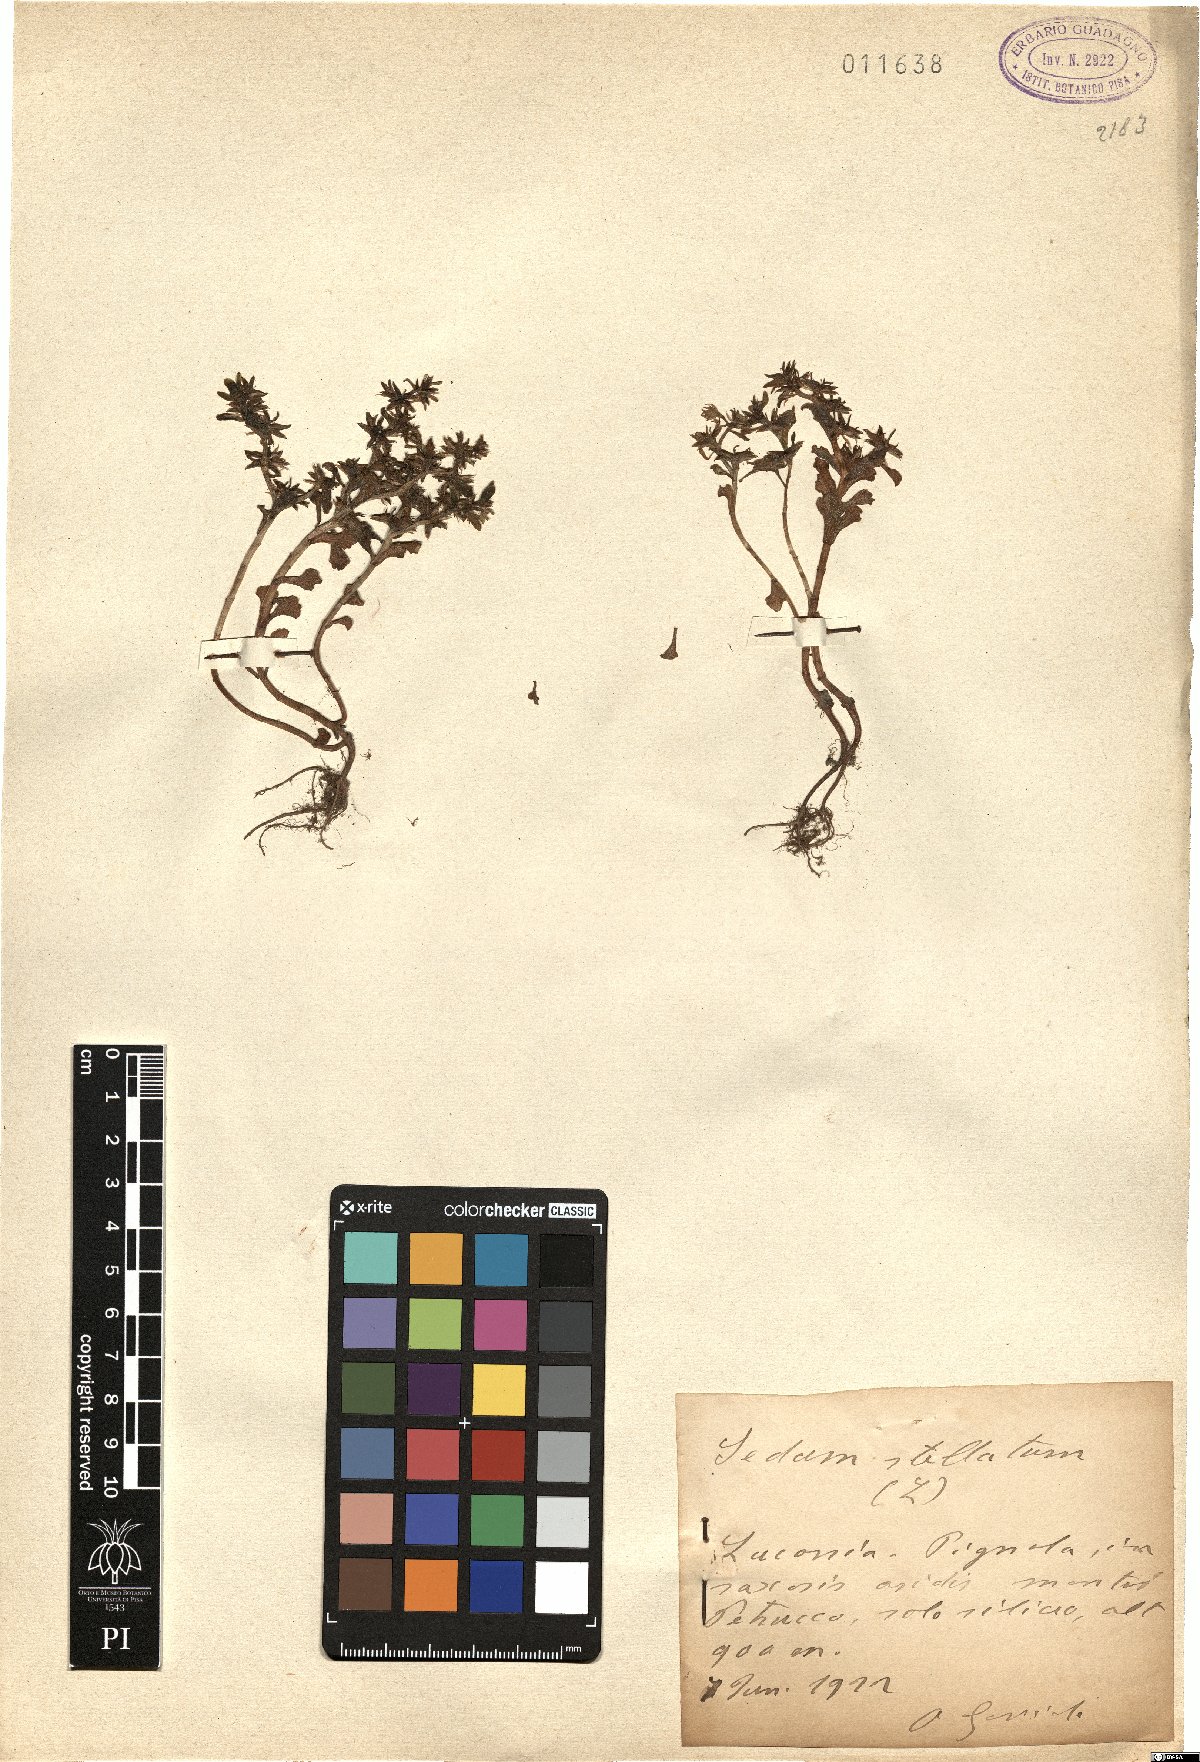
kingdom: Plantae
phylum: Tracheophyta
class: Magnoliopsida
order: Saxifragales
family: Crassulaceae
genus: Phedimus
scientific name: Phedimus stellatus
